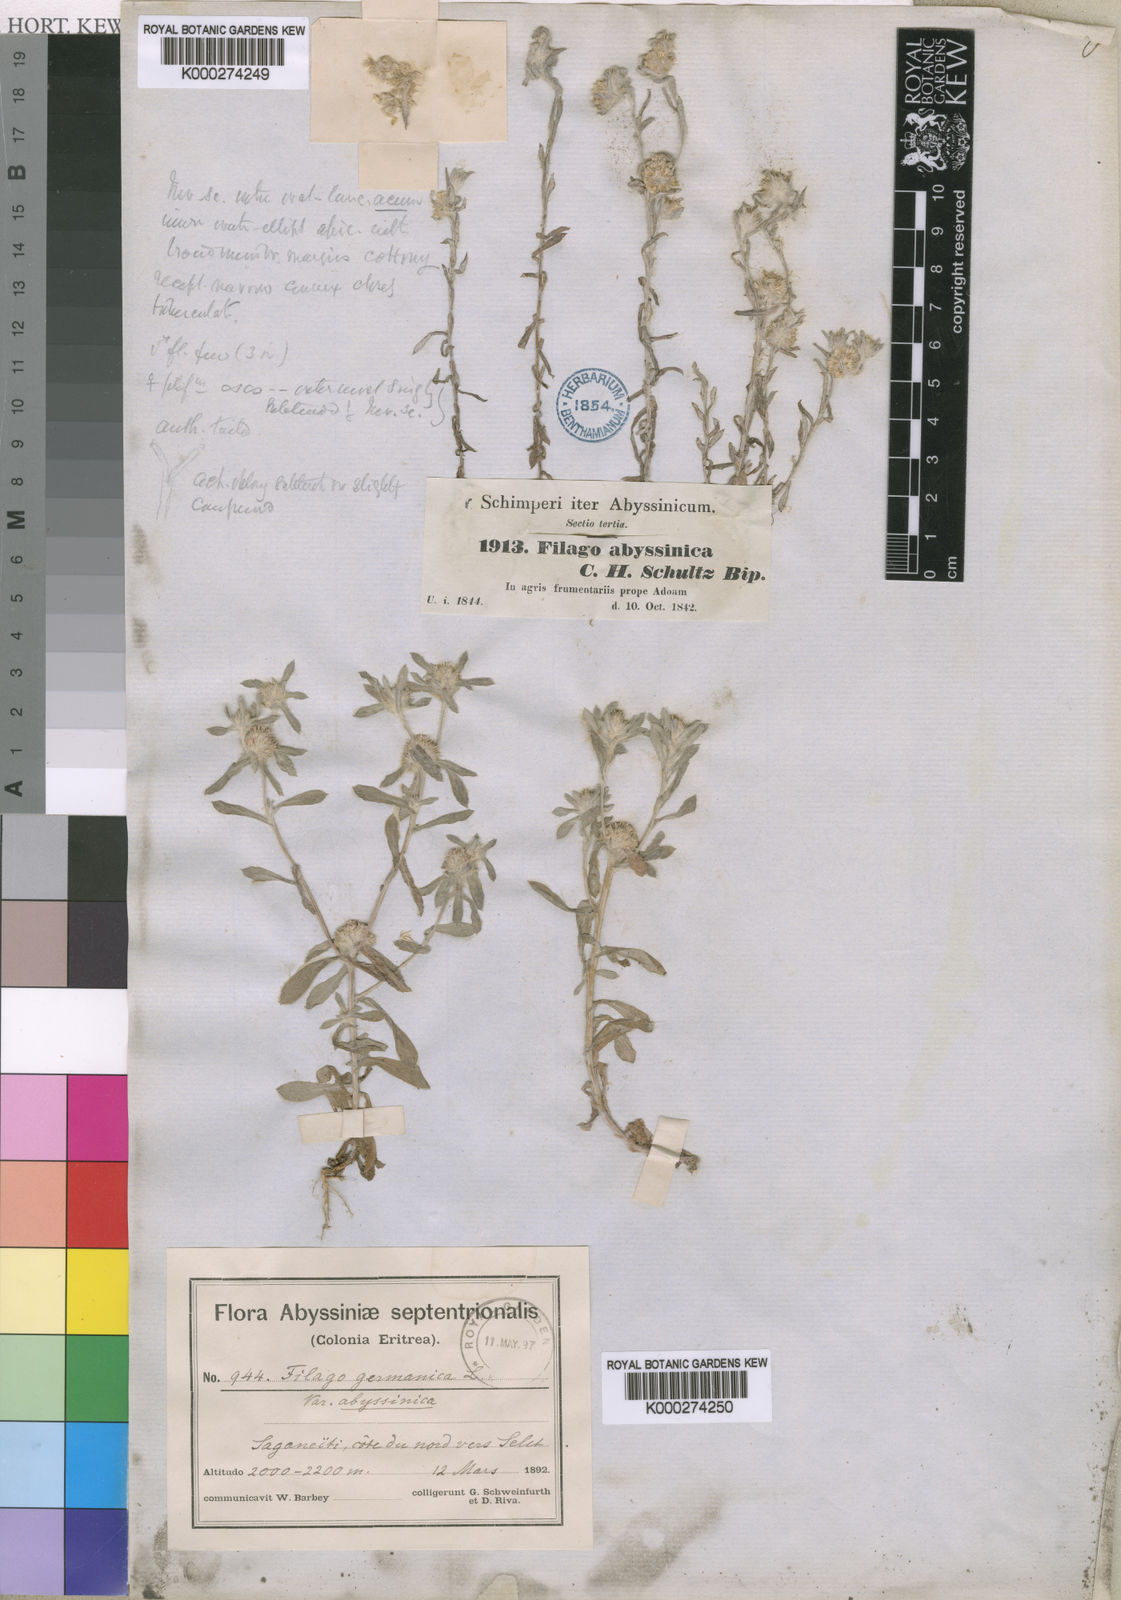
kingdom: Plantae
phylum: Tracheophyta
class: Magnoliopsida
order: Asterales
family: Asteraceae
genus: Filago
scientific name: Filago germanica
